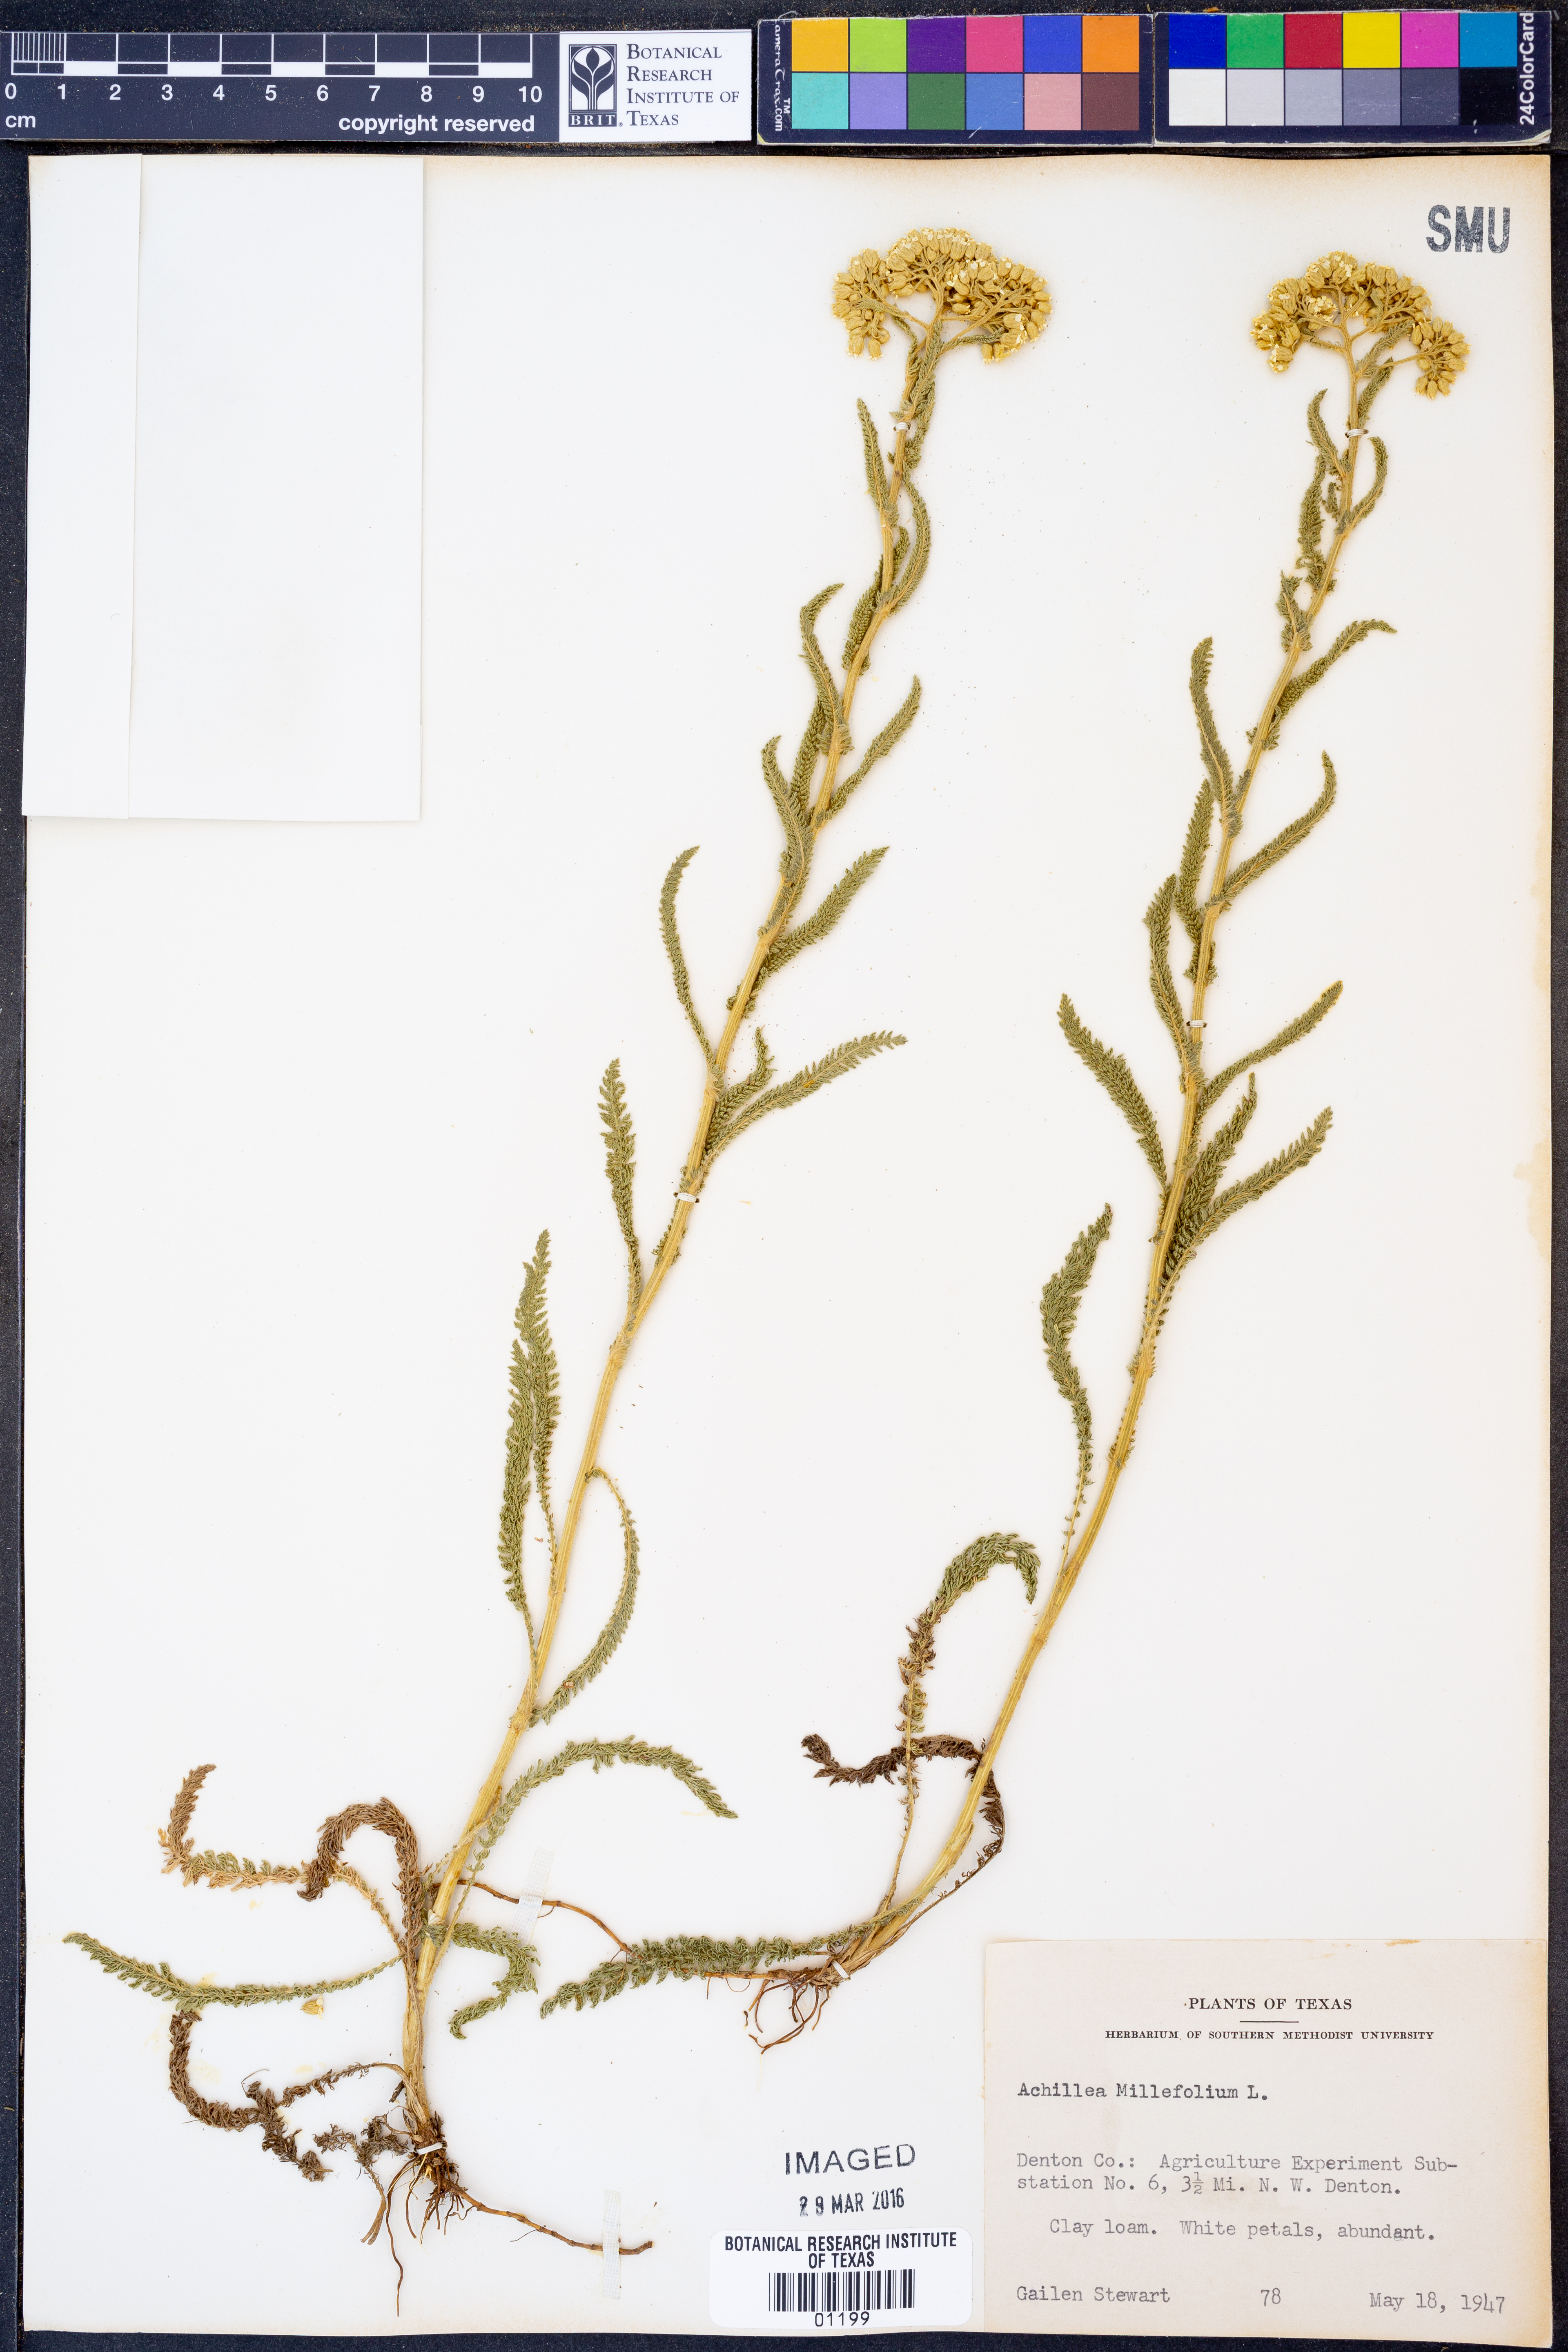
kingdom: Plantae
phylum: Tracheophyta
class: Magnoliopsida
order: Asterales
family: Asteraceae
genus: Achillea
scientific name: Achillea millefolium
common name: Yarrow
